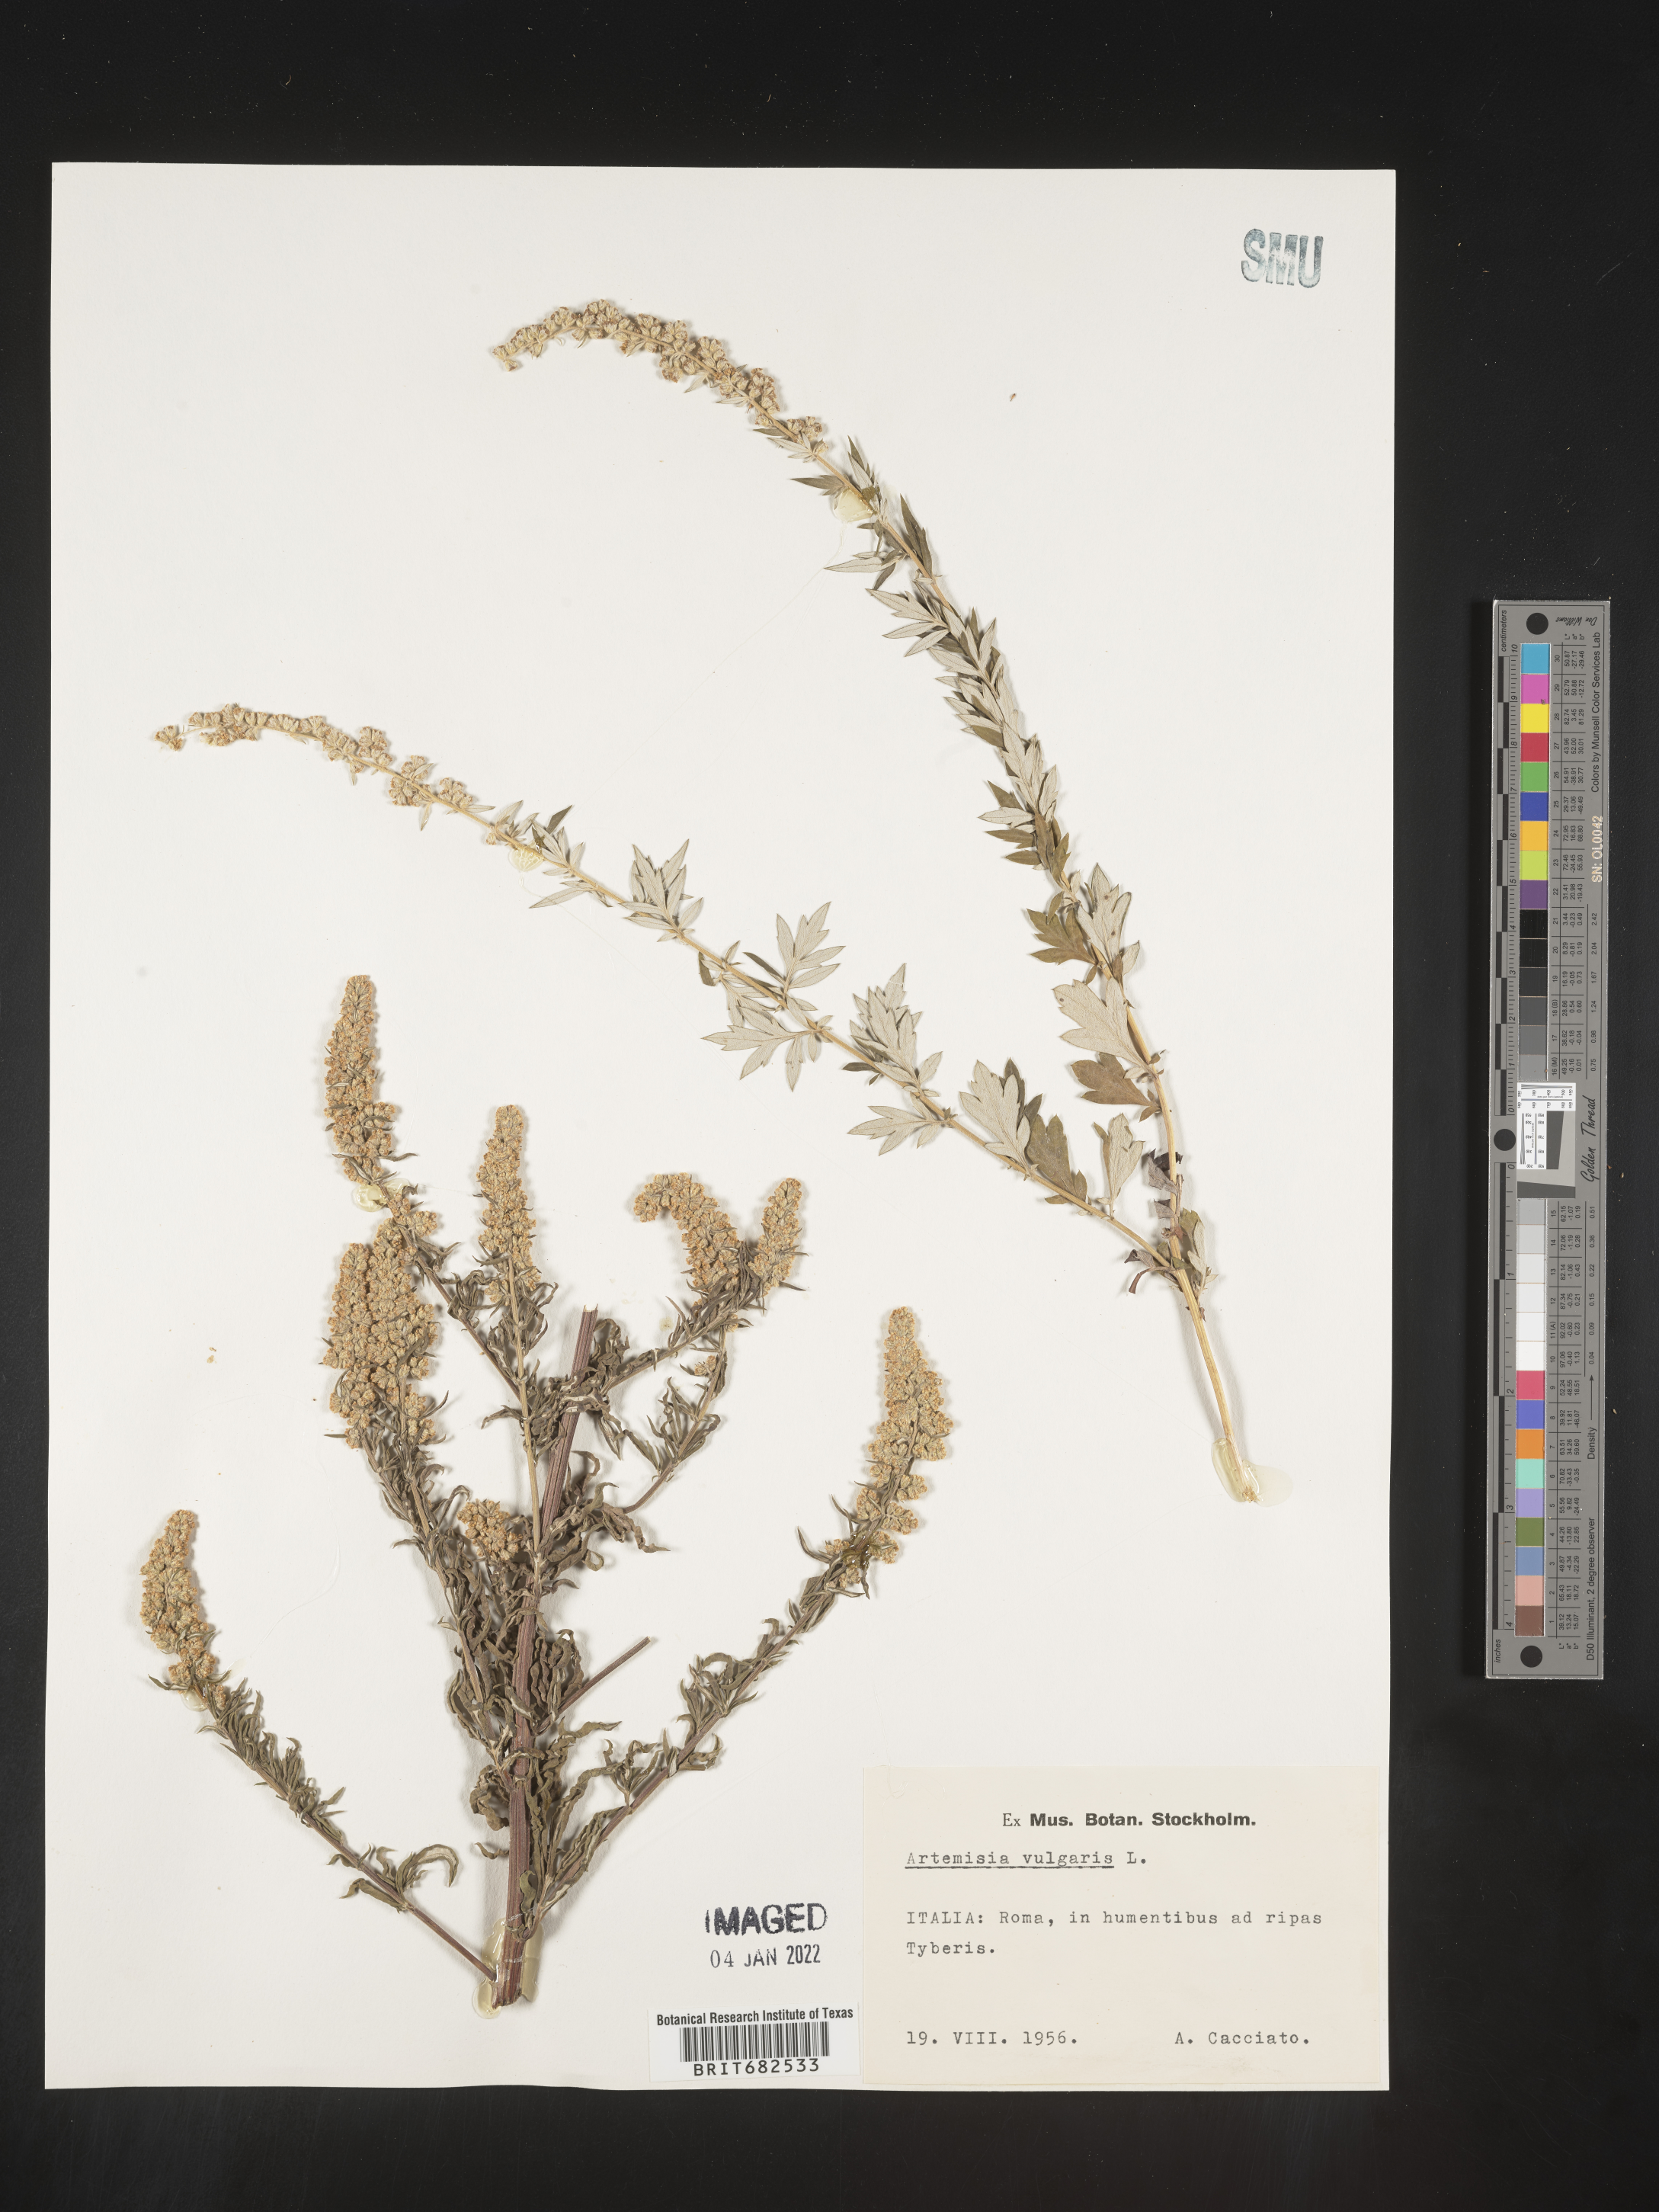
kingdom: Plantae
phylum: Tracheophyta
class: Magnoliopsida
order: Asterales
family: Asteraceae
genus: Artemisia
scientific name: Artemisia
